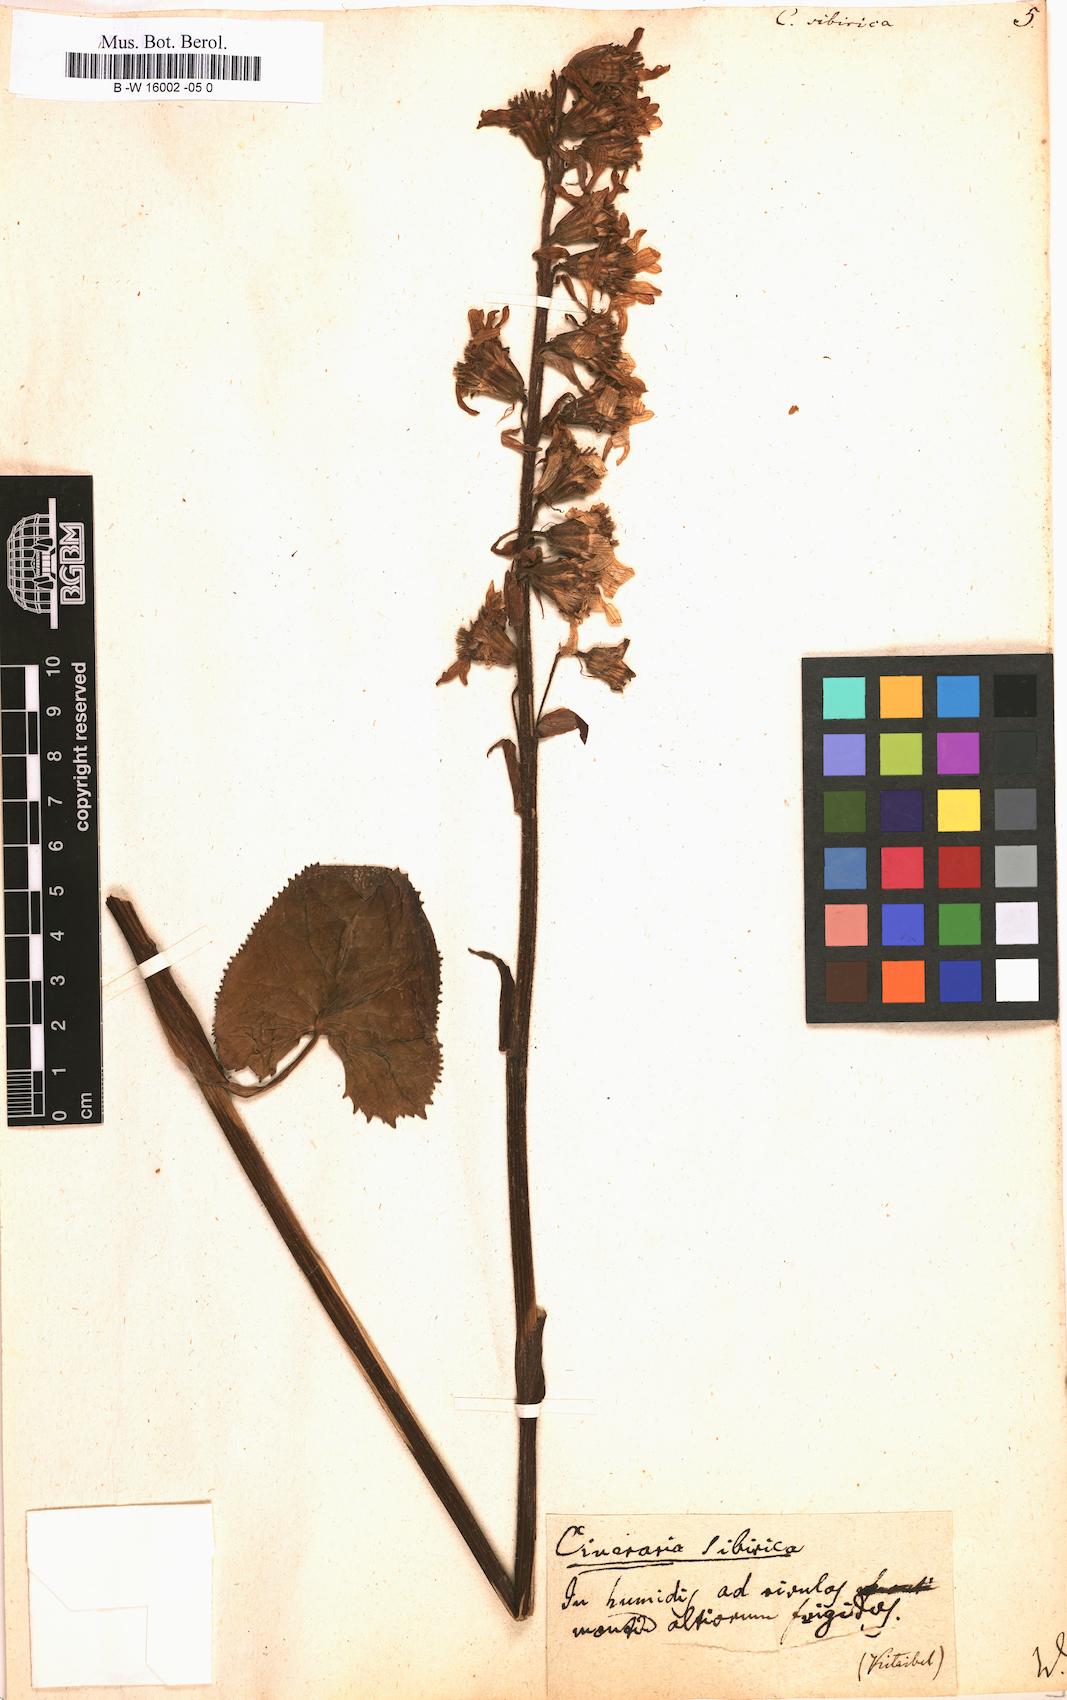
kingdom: Plantae
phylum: Tracheophyta
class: Magnoliopsida
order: Asterales
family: Asteraceae
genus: Ligularia
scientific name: Ligularia sibirica
